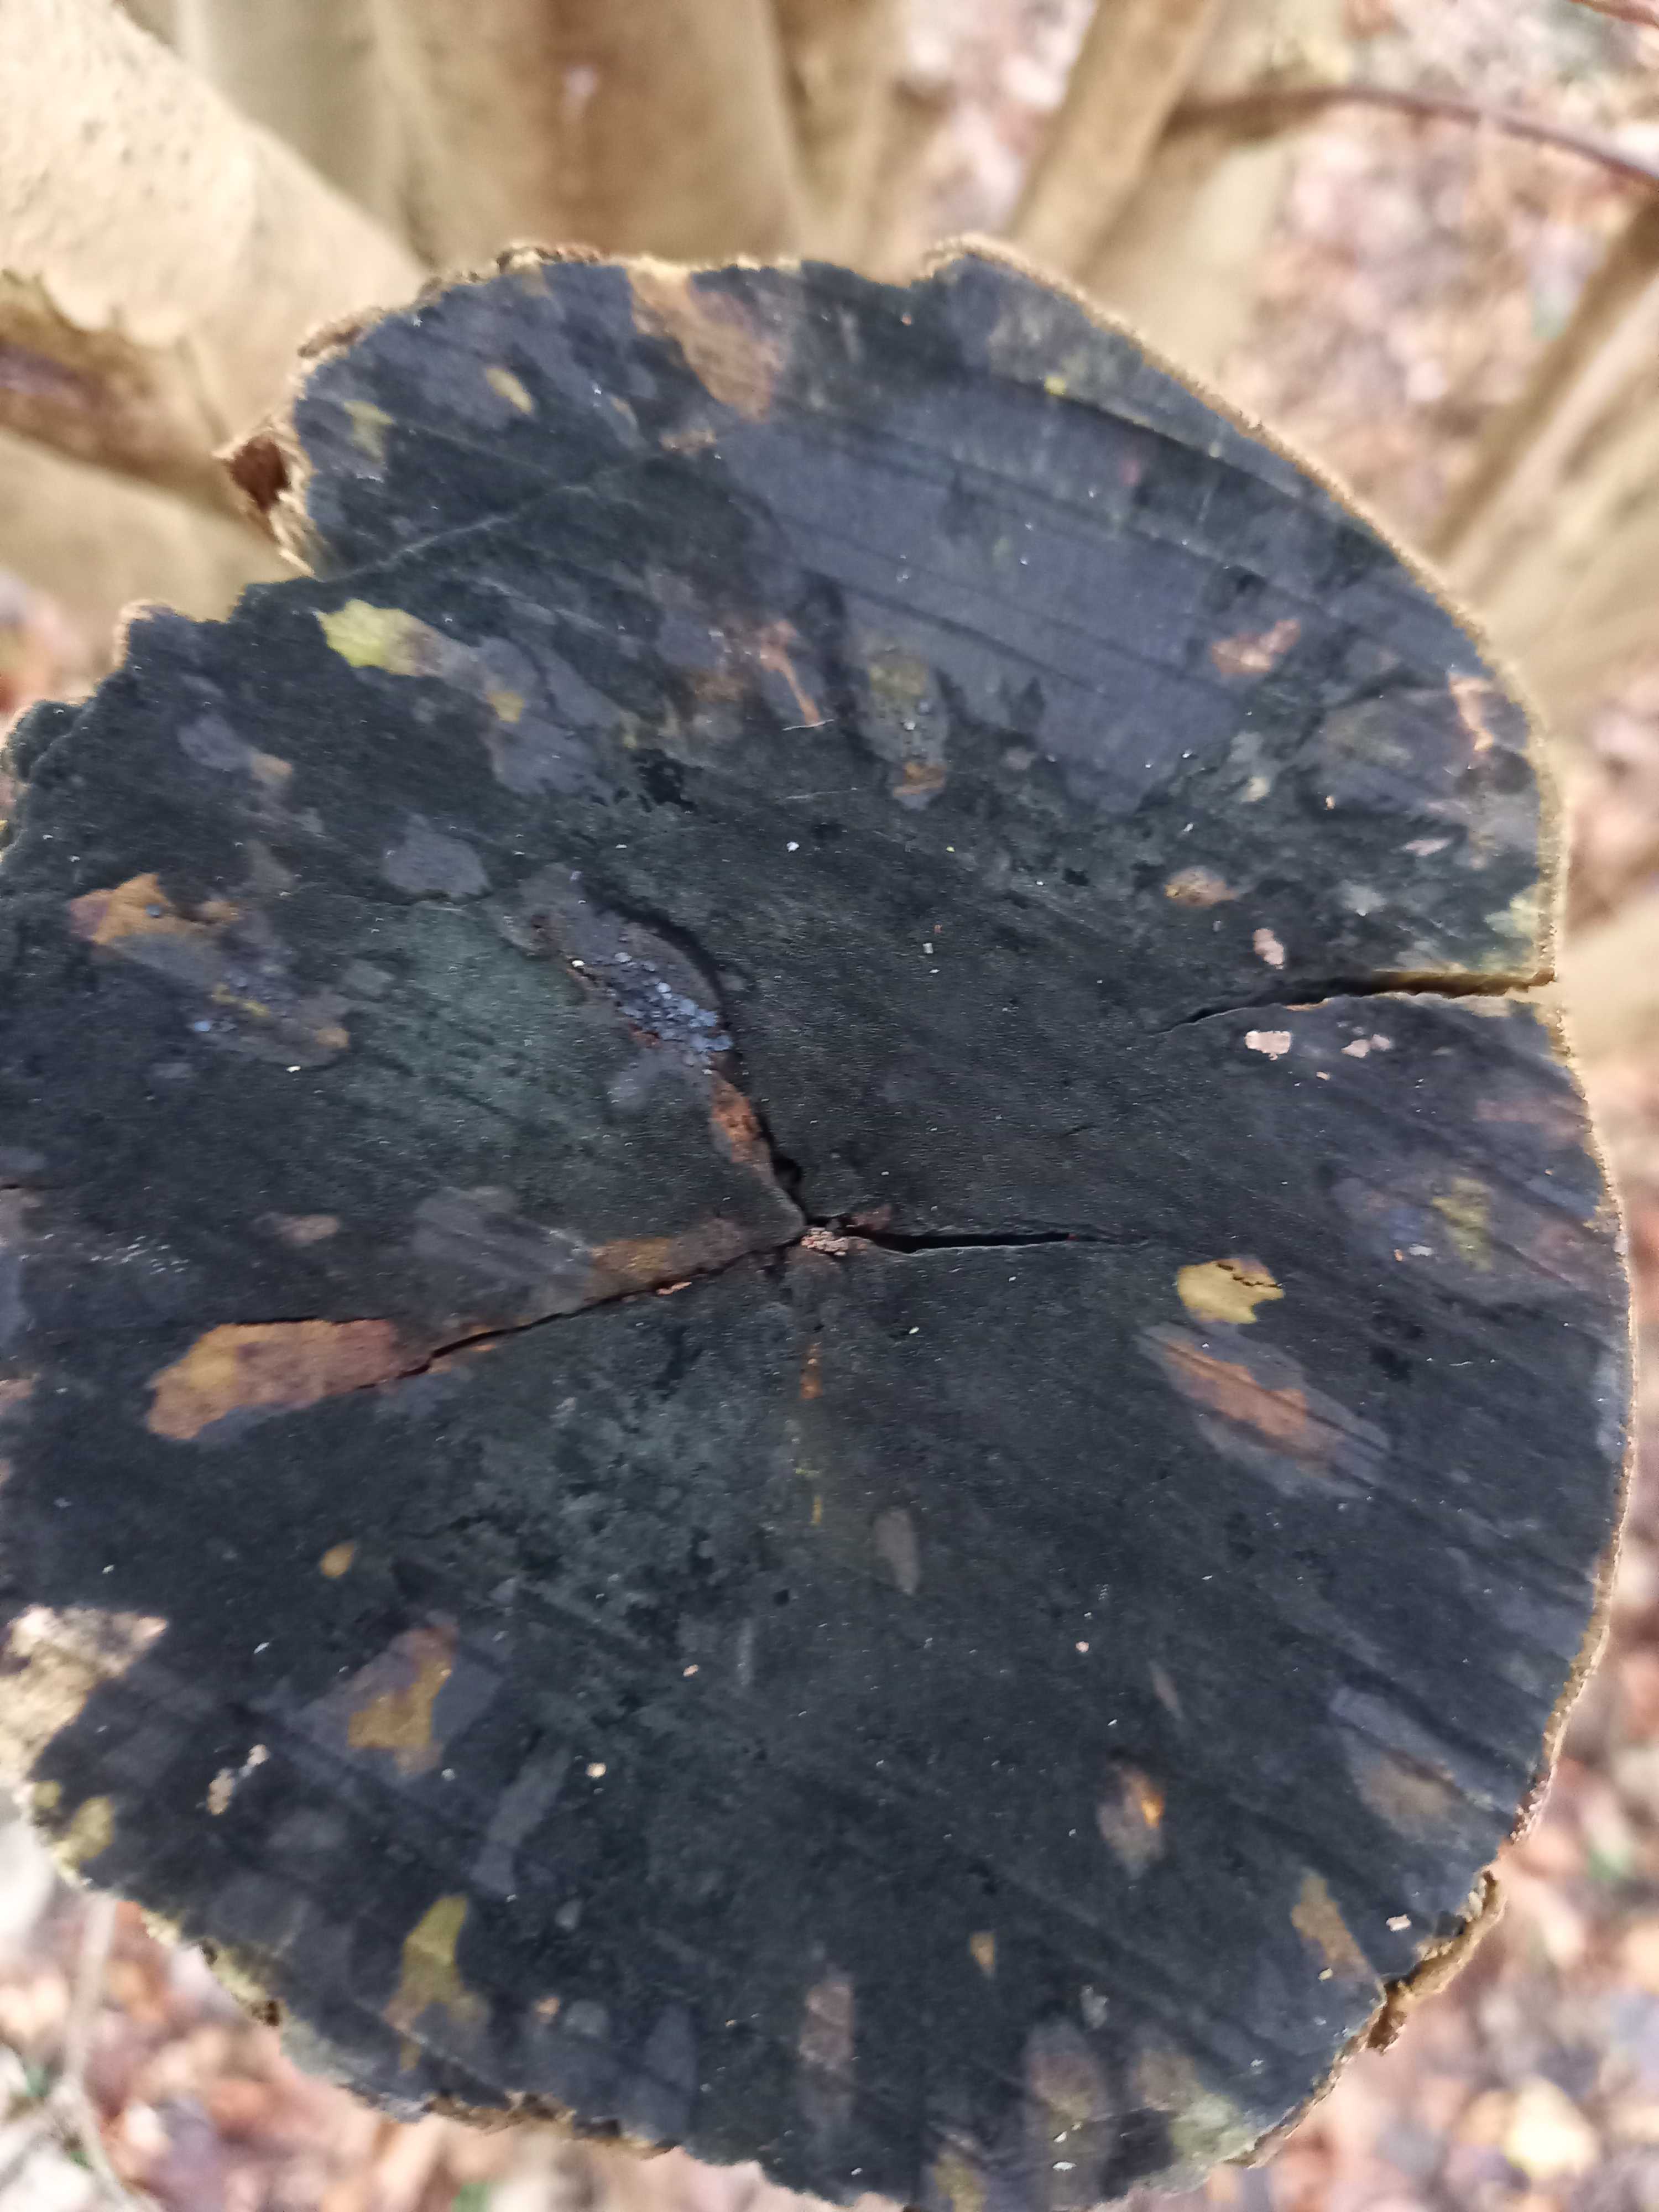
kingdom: Fungi
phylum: Ascomycota
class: Leotiomycetes
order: Helotiales
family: Helotiaceae
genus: Bispora
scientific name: Bispora pallescens
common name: måtte-snitskive
